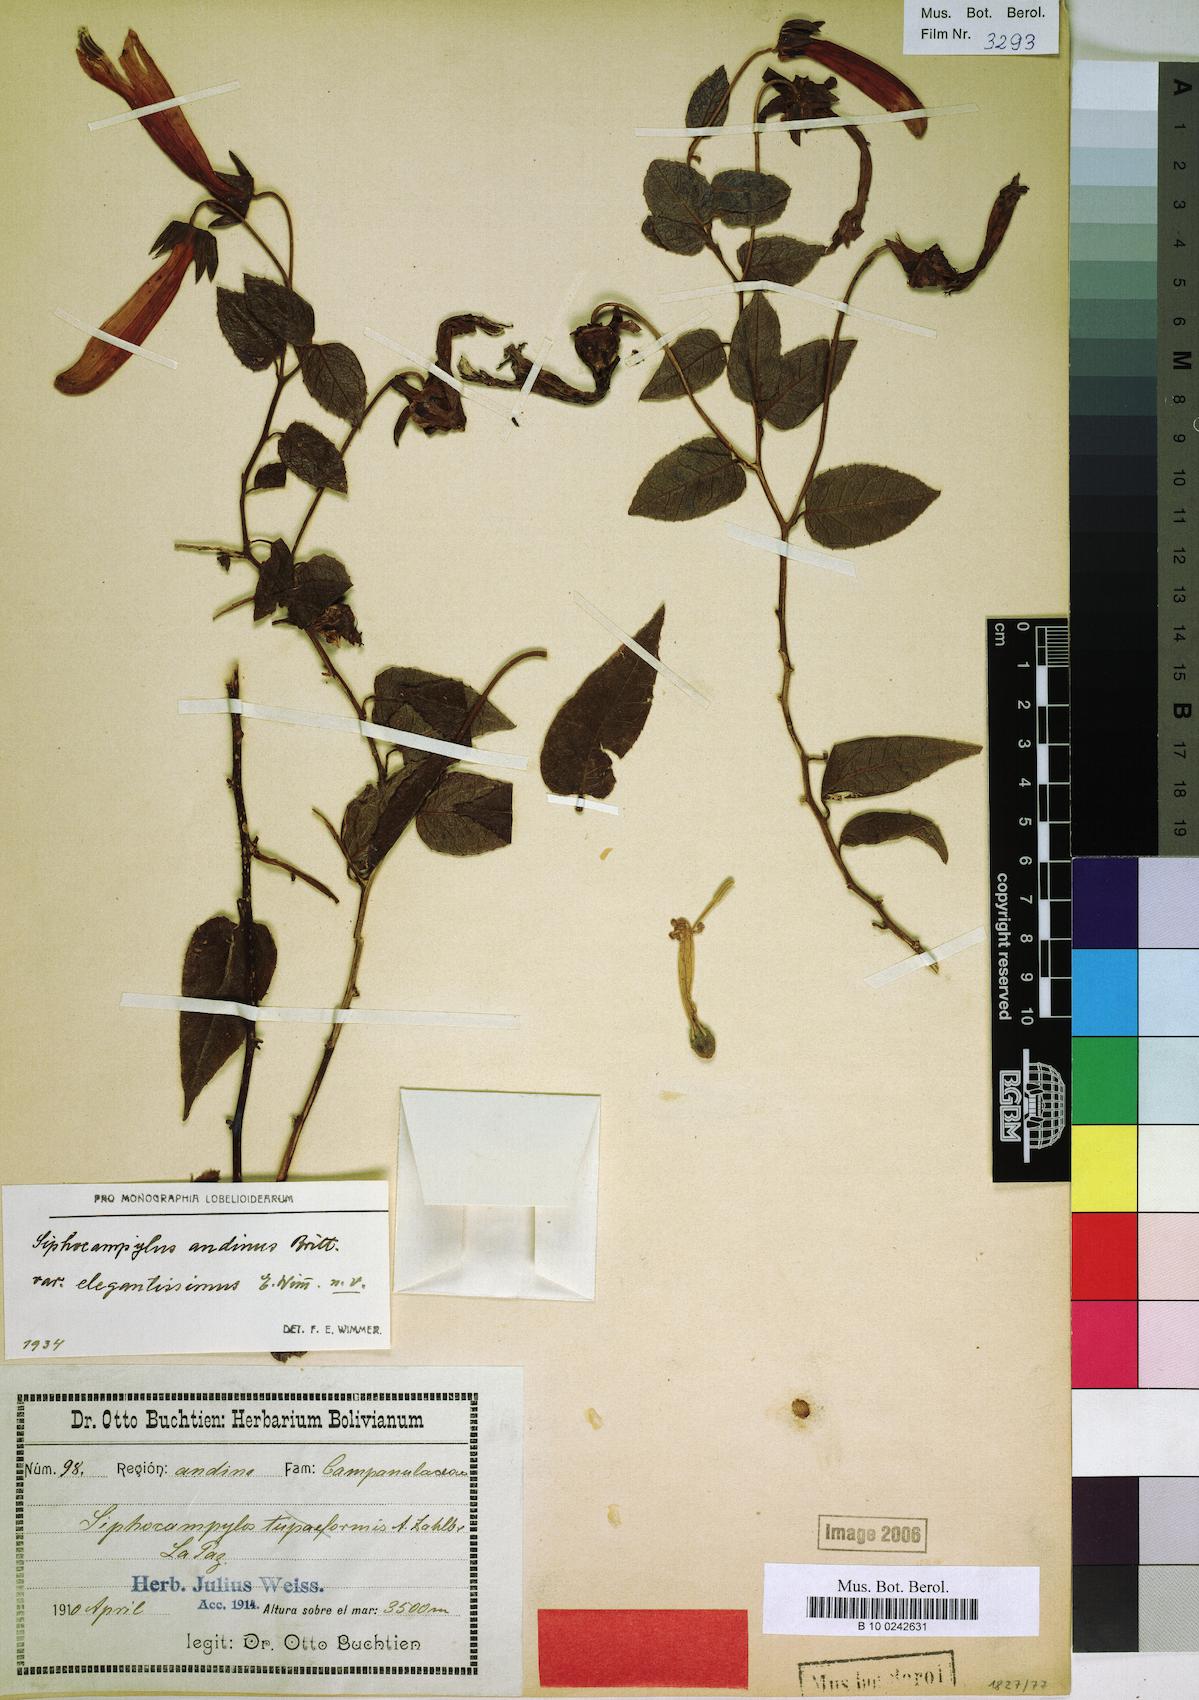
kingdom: Plantae
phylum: Tracheophyta
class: Magnoliopsida
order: Asterales
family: Campanulaceae
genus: Siphocampylus
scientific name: Siphocampylus andinus
